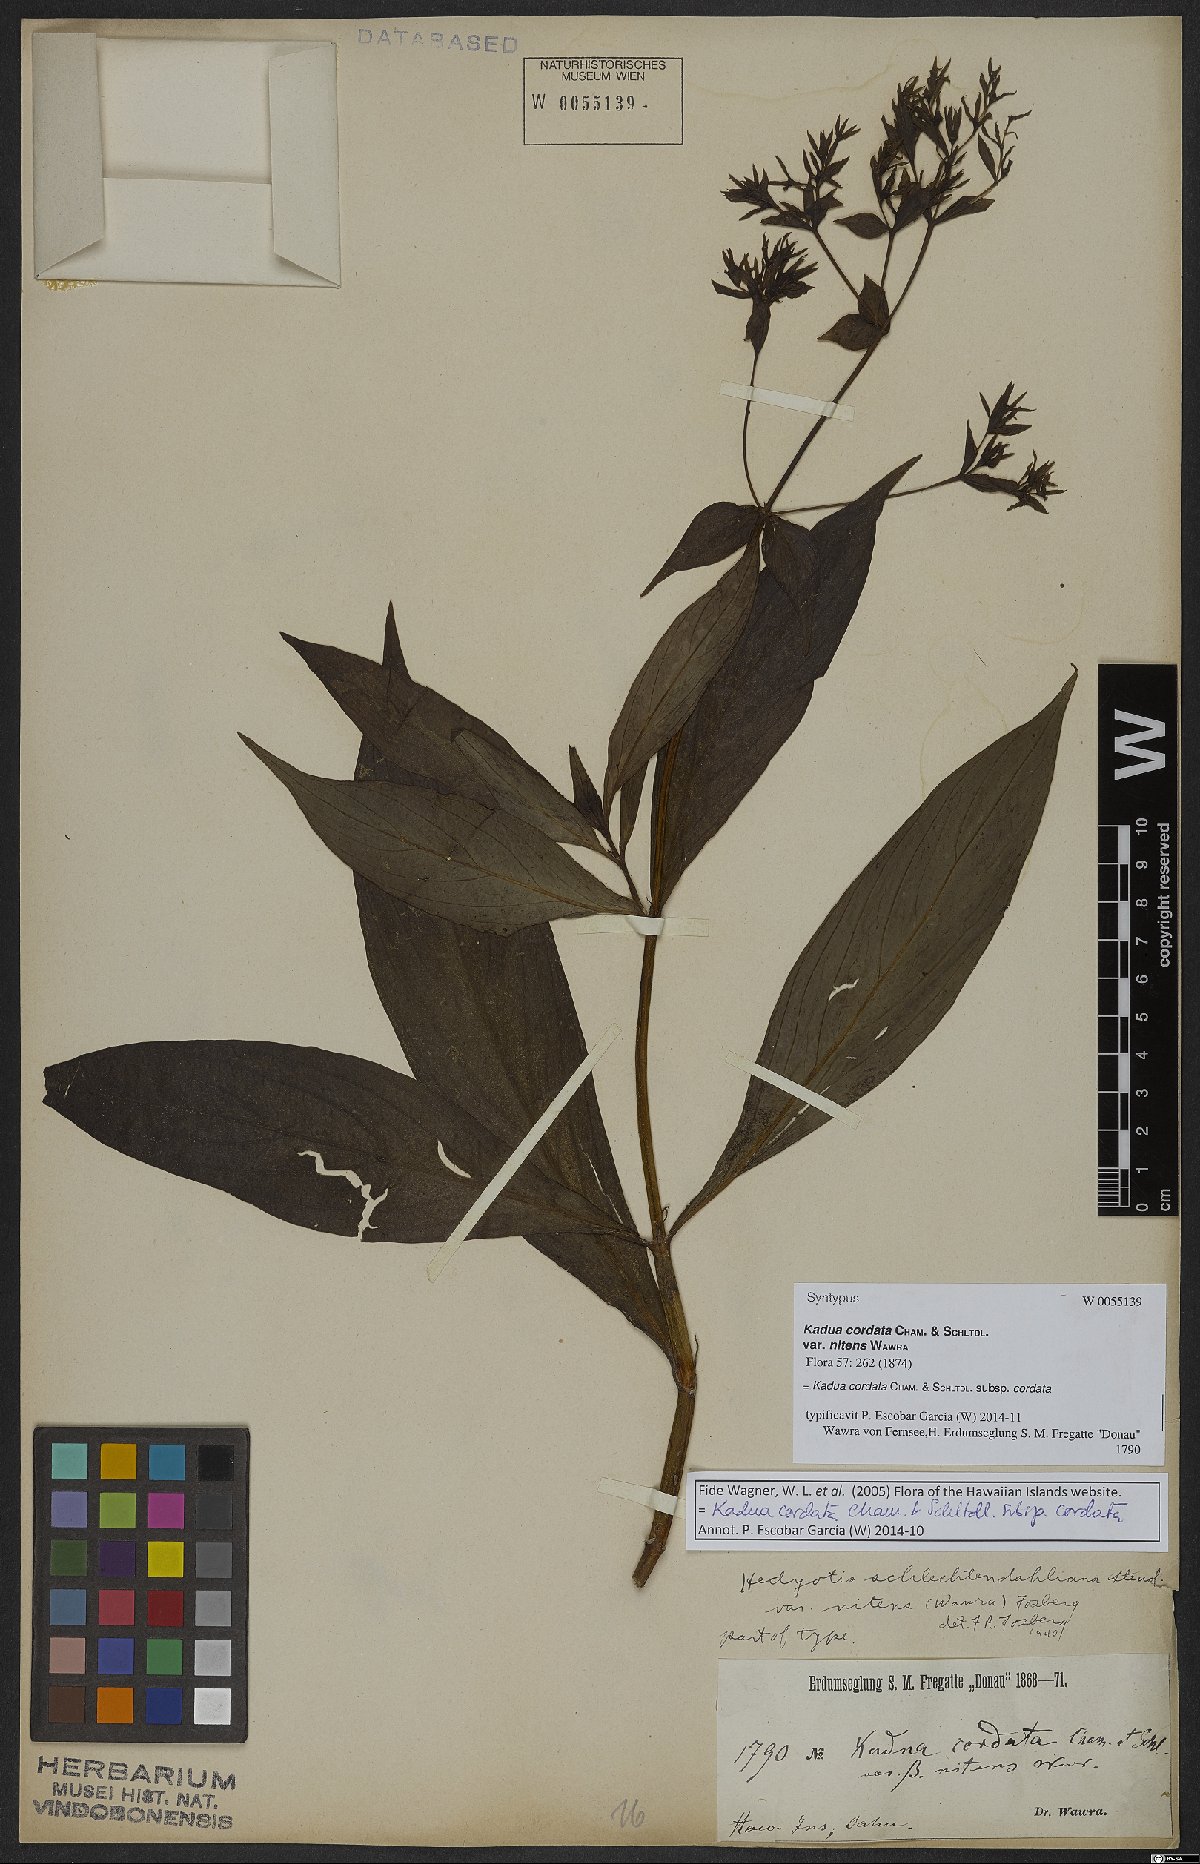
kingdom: Plantae
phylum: Tracheophyta
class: Magnoliopsida
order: Gentianales
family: Rubiaceae
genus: Kadua
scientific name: Kadua cordata
